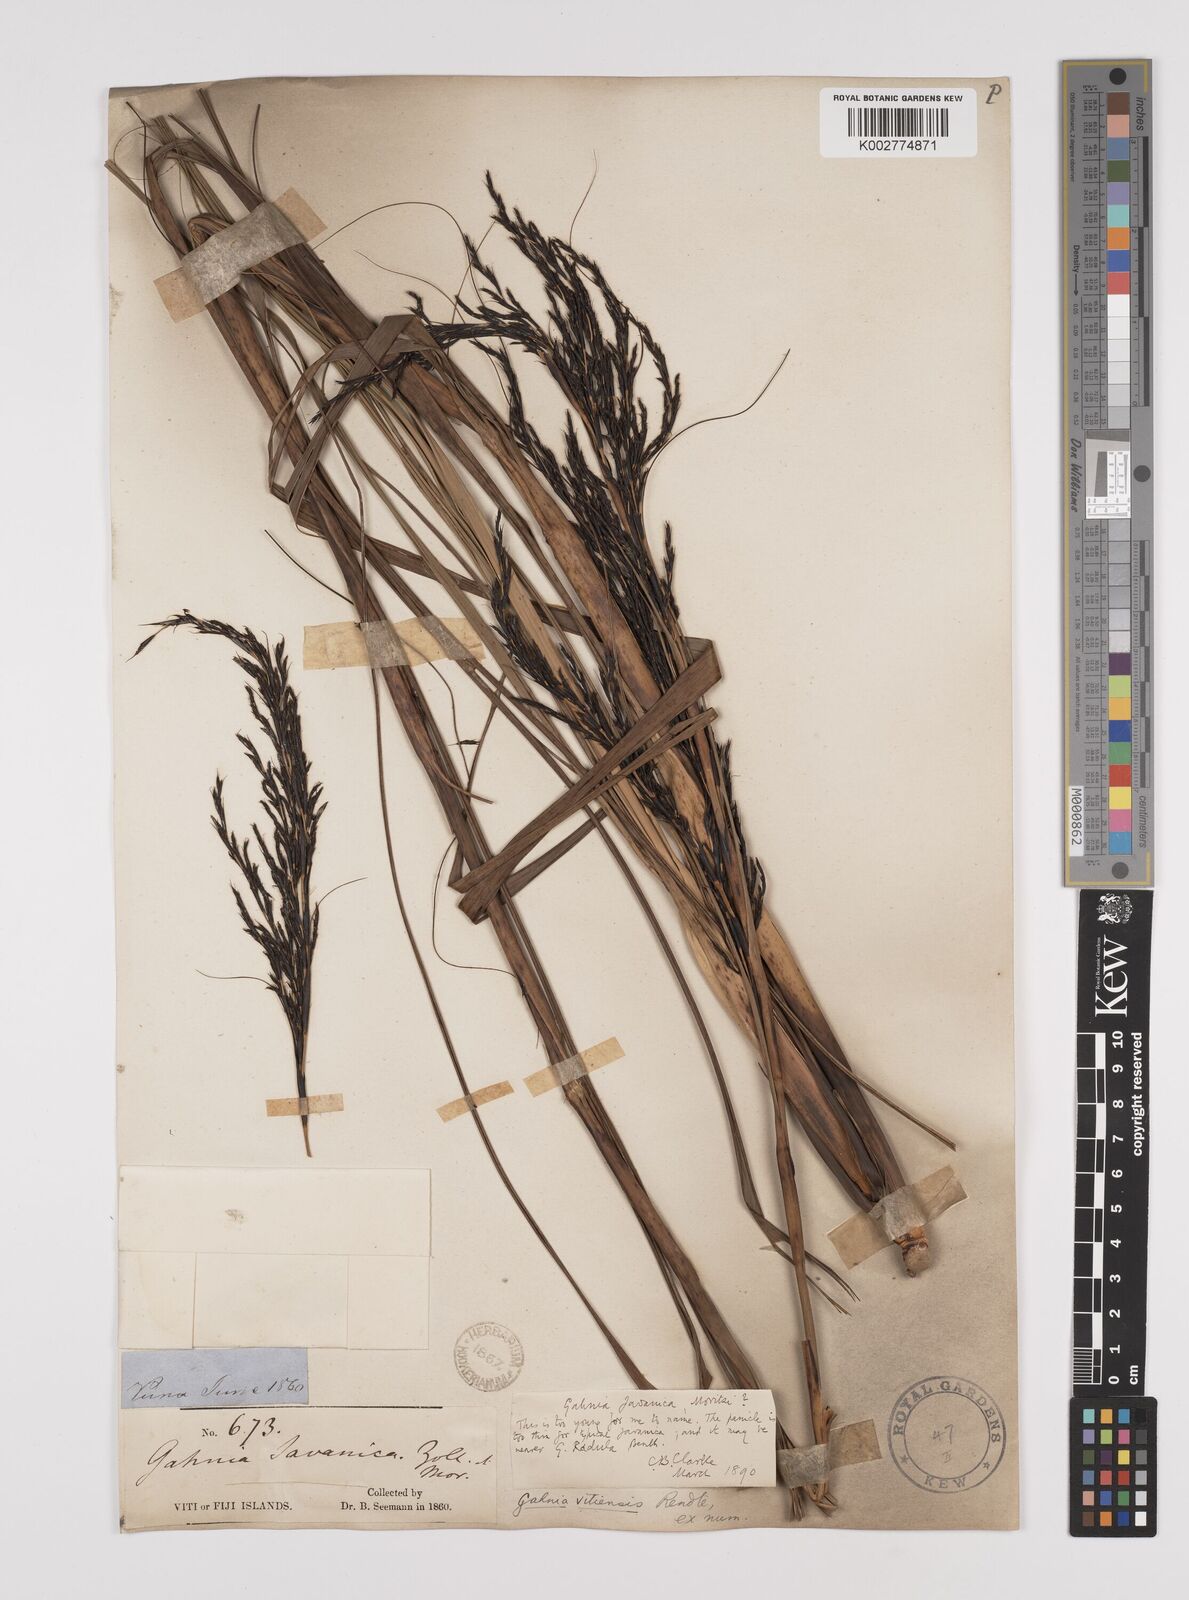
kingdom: Plantae
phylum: Tracheophyta
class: Liliopsida
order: Poales
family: Cyperaceae
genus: Gahnia
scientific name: Gahnia vitiensis
